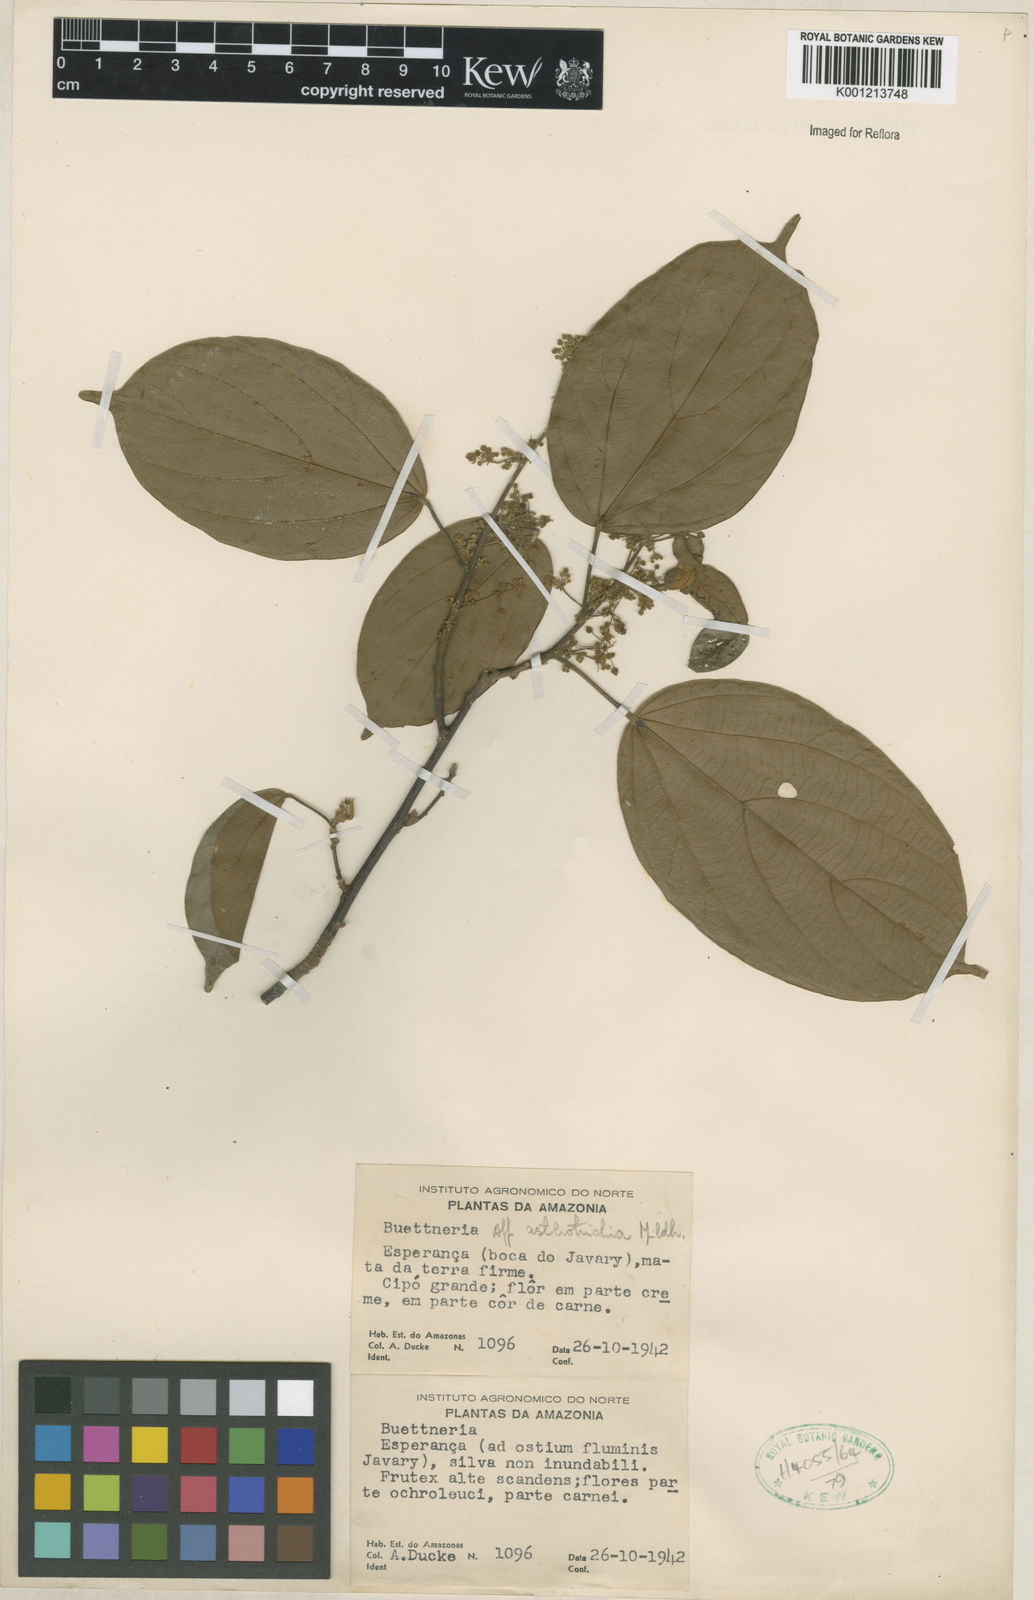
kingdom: Plantae
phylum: Tracheophyta
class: Magnoliopsida
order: Malvales
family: Malvaceae
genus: Byttneria
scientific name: Byttneria asterotricha
